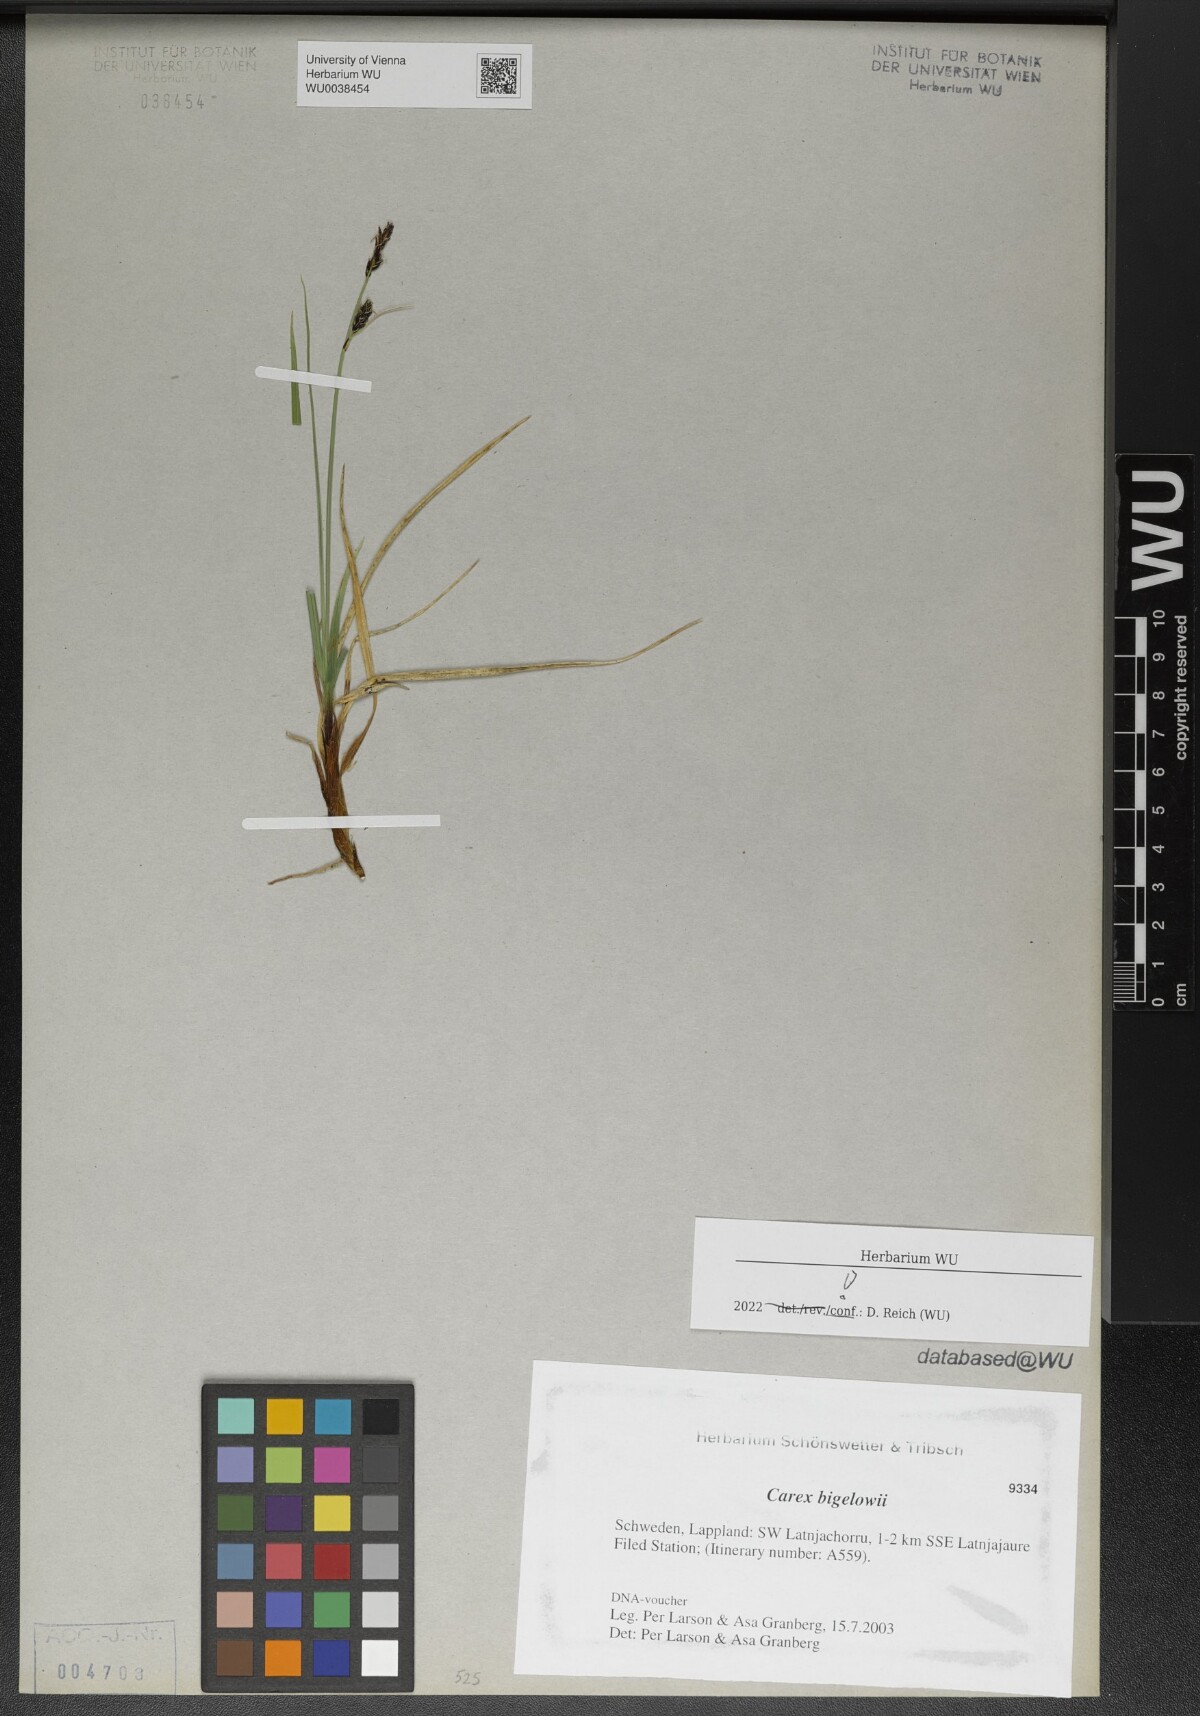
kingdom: Plantae
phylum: Tracheophyta
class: Liliopsida
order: Poales
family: Cyperaceae
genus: Carex
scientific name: Carex bigelowii
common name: Stiff sedge
